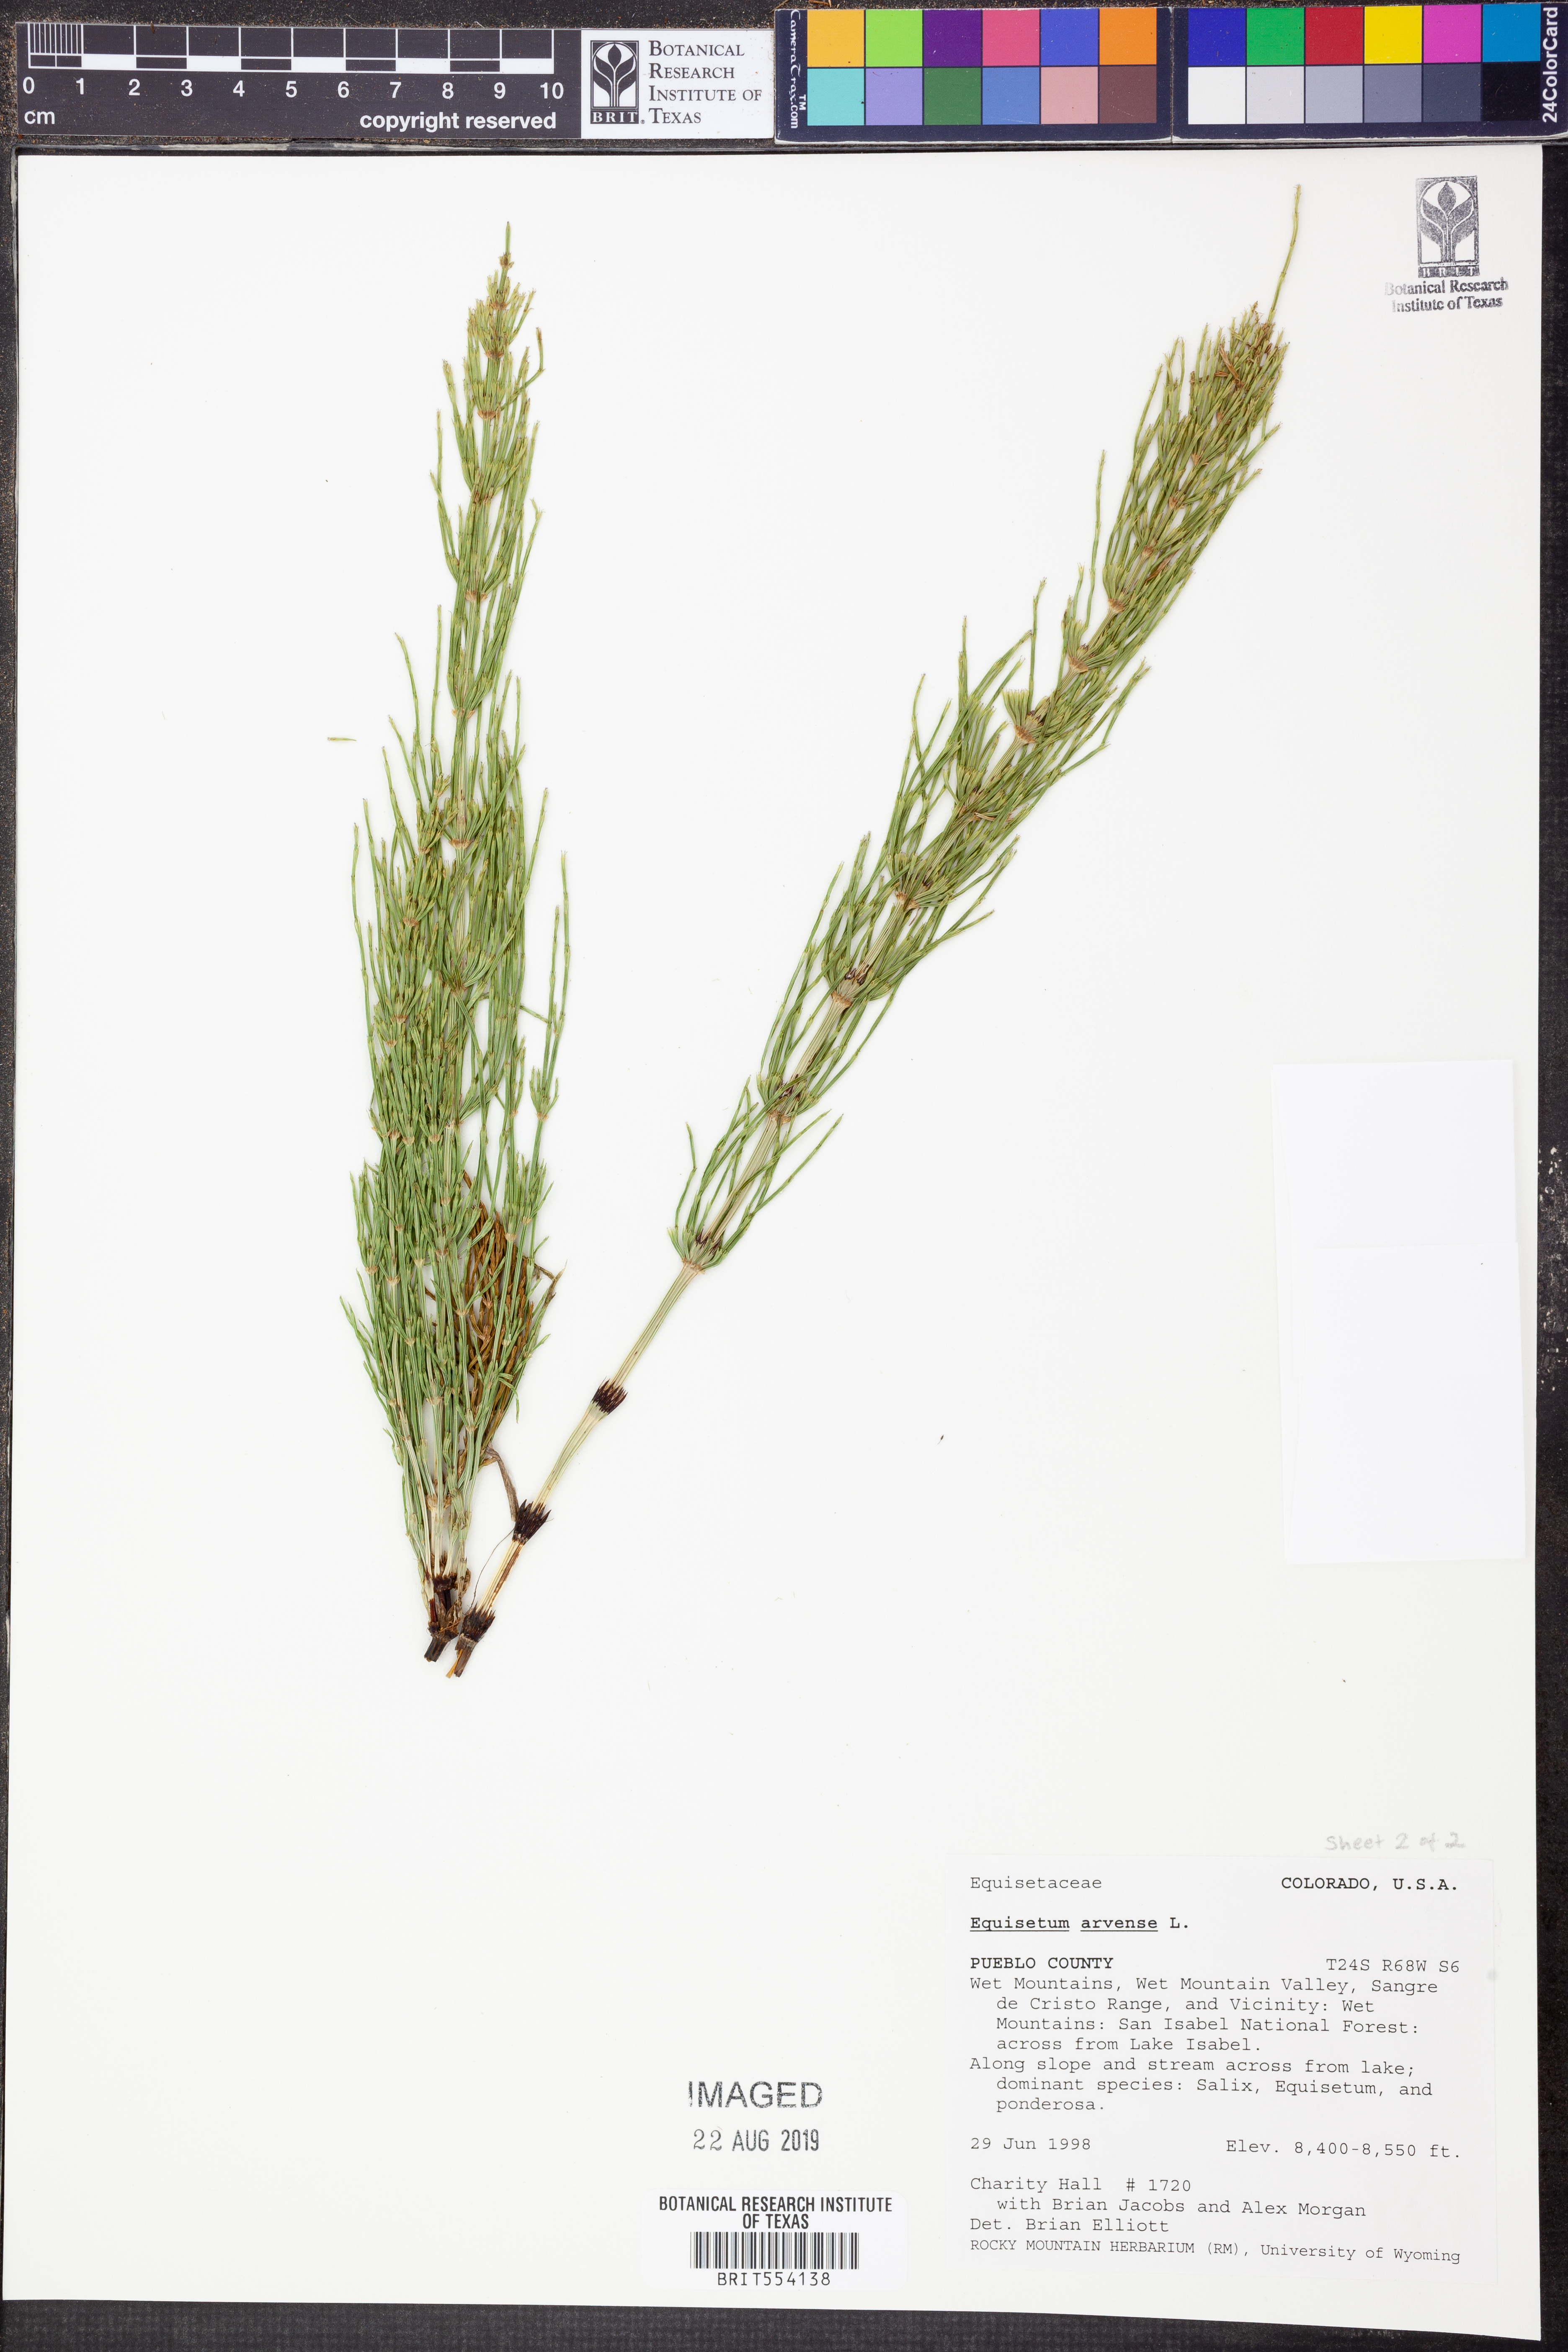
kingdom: Plantae
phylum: Tracheophyta
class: Polypodiopsida
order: Equisetales
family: Equisetaceae
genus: Equisetum
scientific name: Equisetum arvense
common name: Field horsetail
